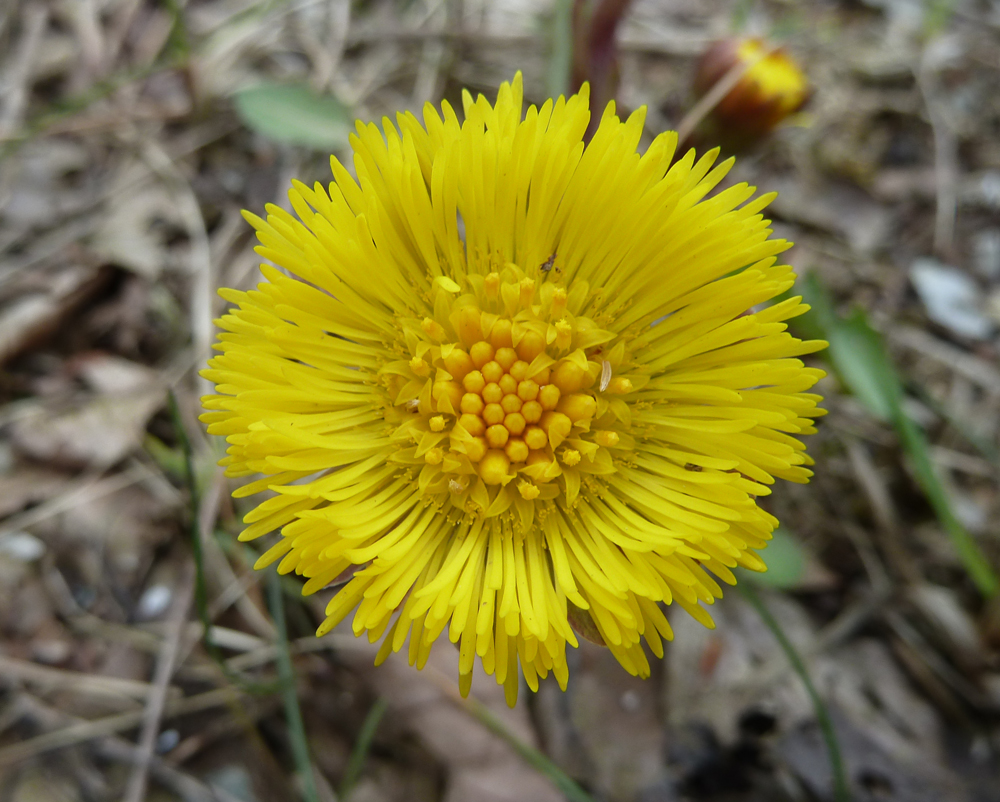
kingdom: Plantae
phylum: Tracheophyta
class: Magnoliopsida
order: Asterales
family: Asteraceae
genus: Tussilago
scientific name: Tussilago farfara
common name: Coltsfoot
